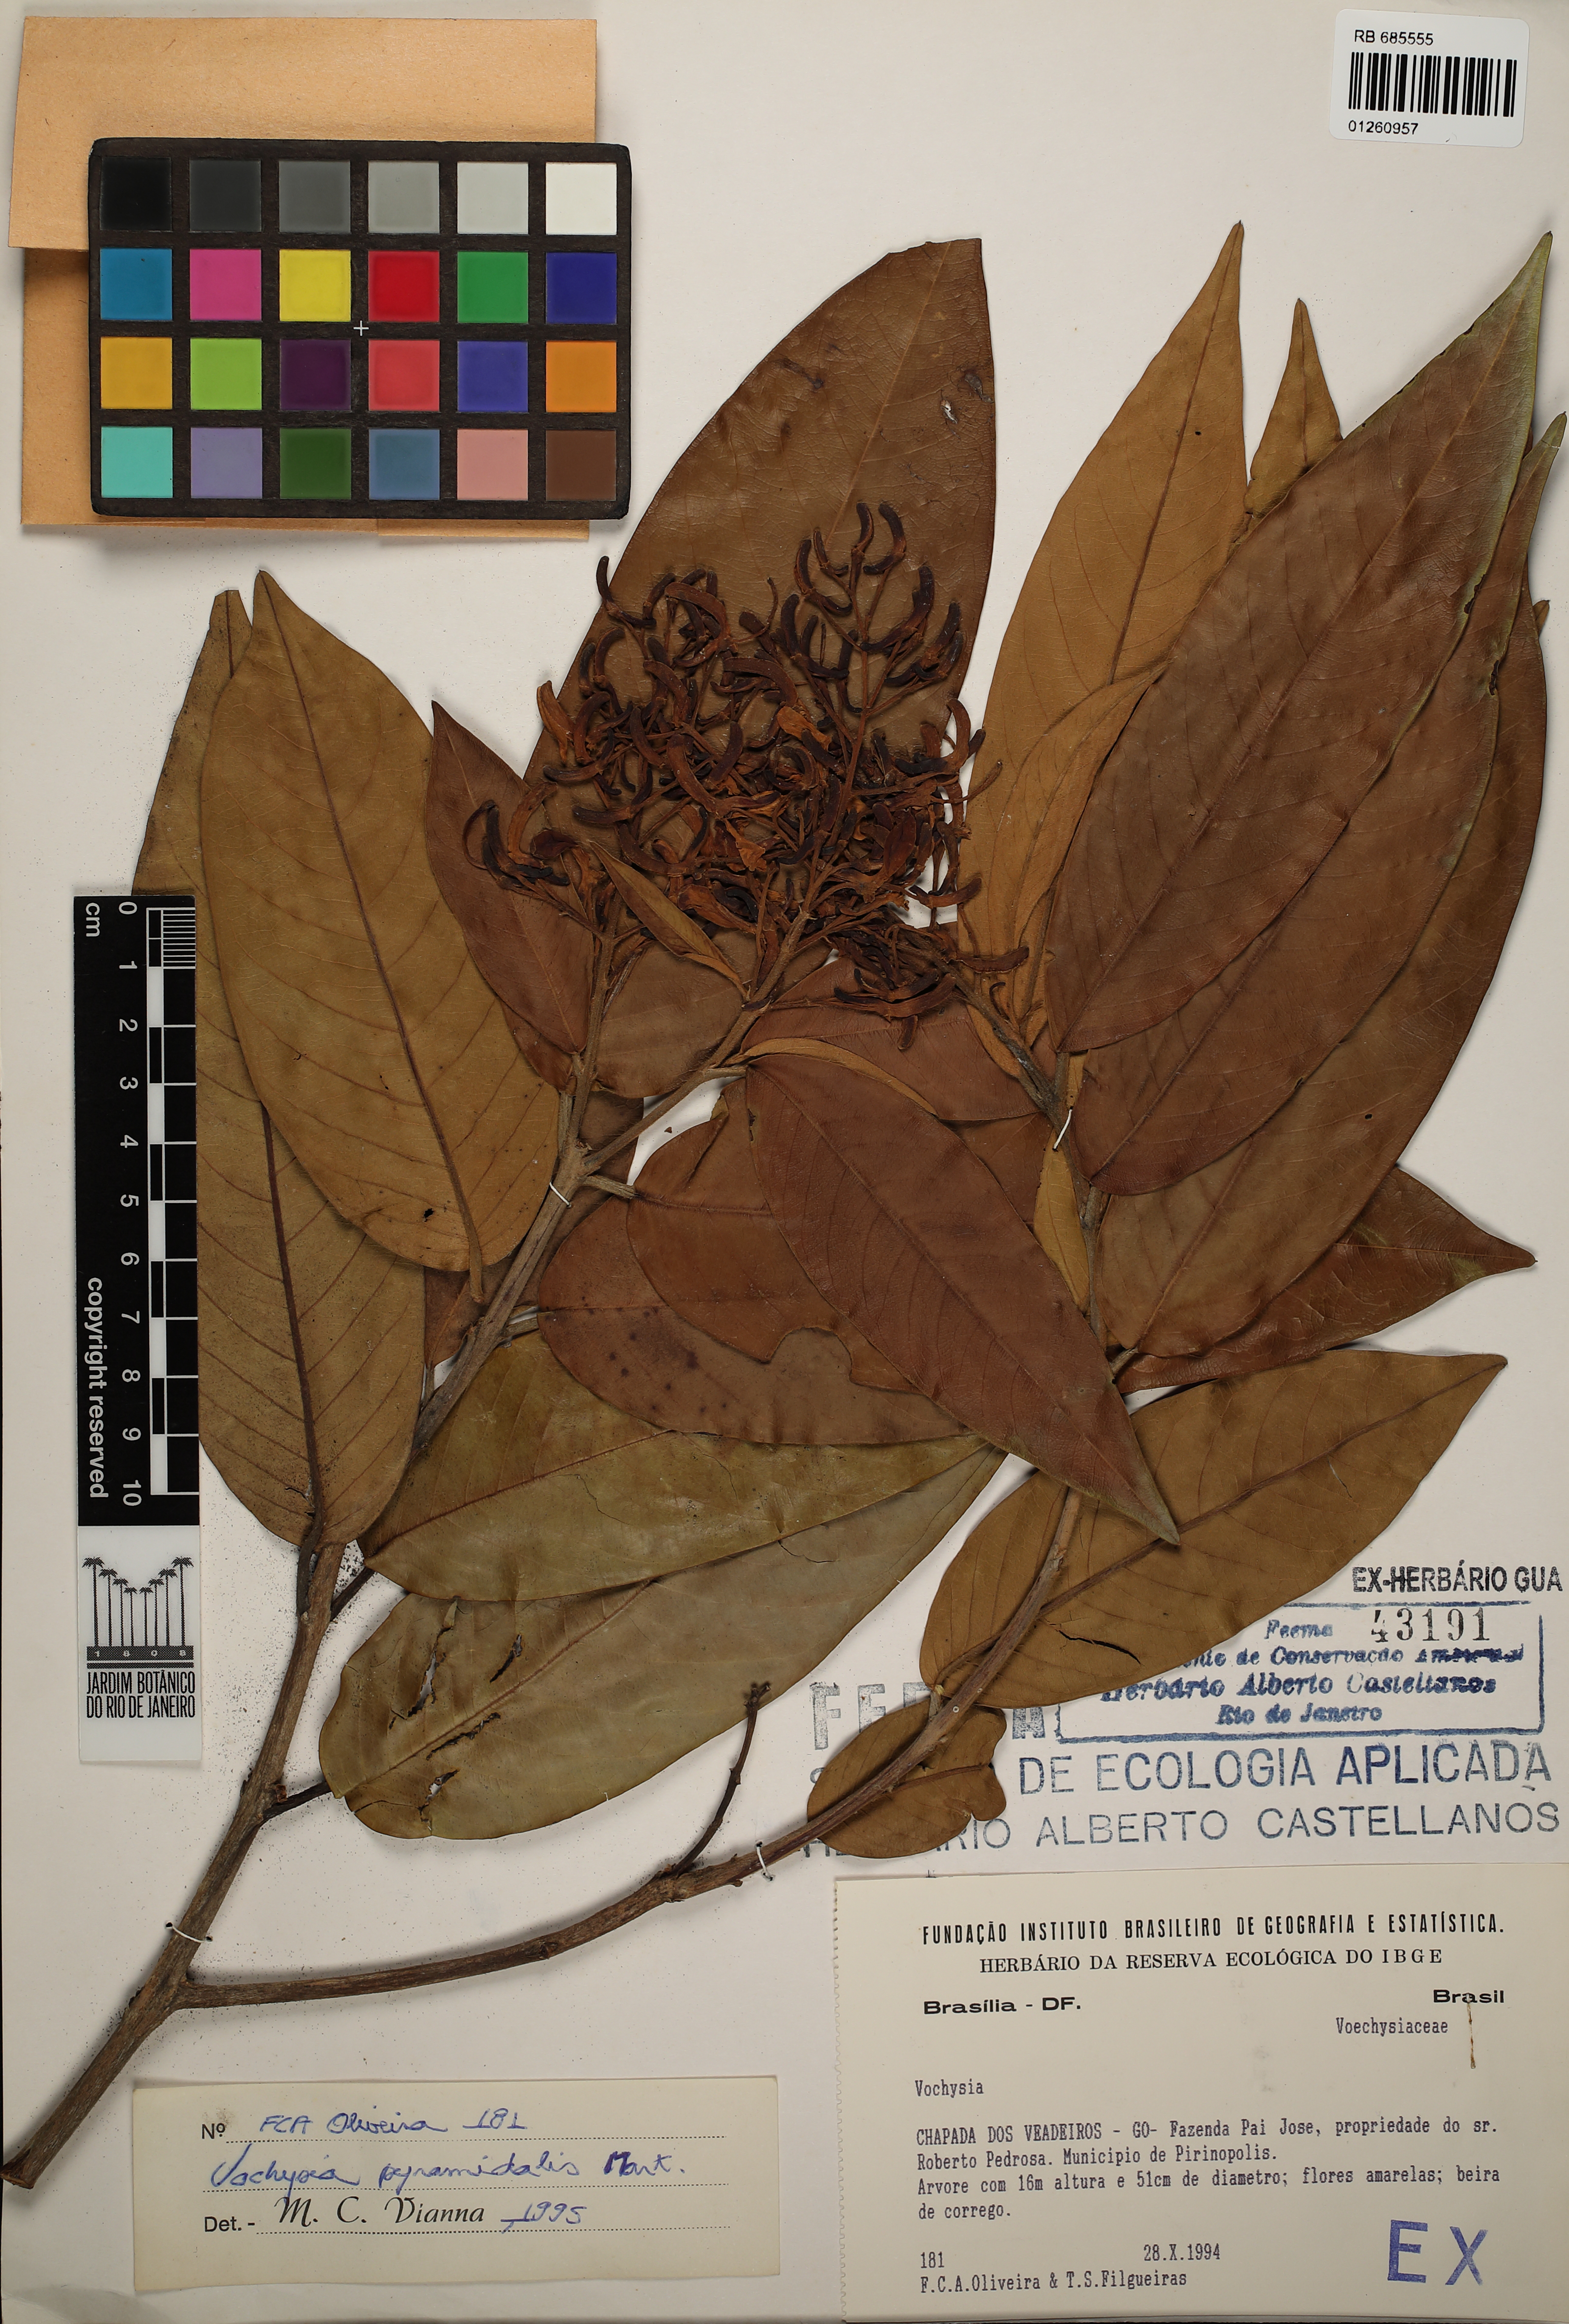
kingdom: Plantae
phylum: Tracheophyta
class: Magnoliopsida
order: Myrtales
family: Vochysiaceae
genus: Vochysia
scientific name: Vochysia pyramidalis
